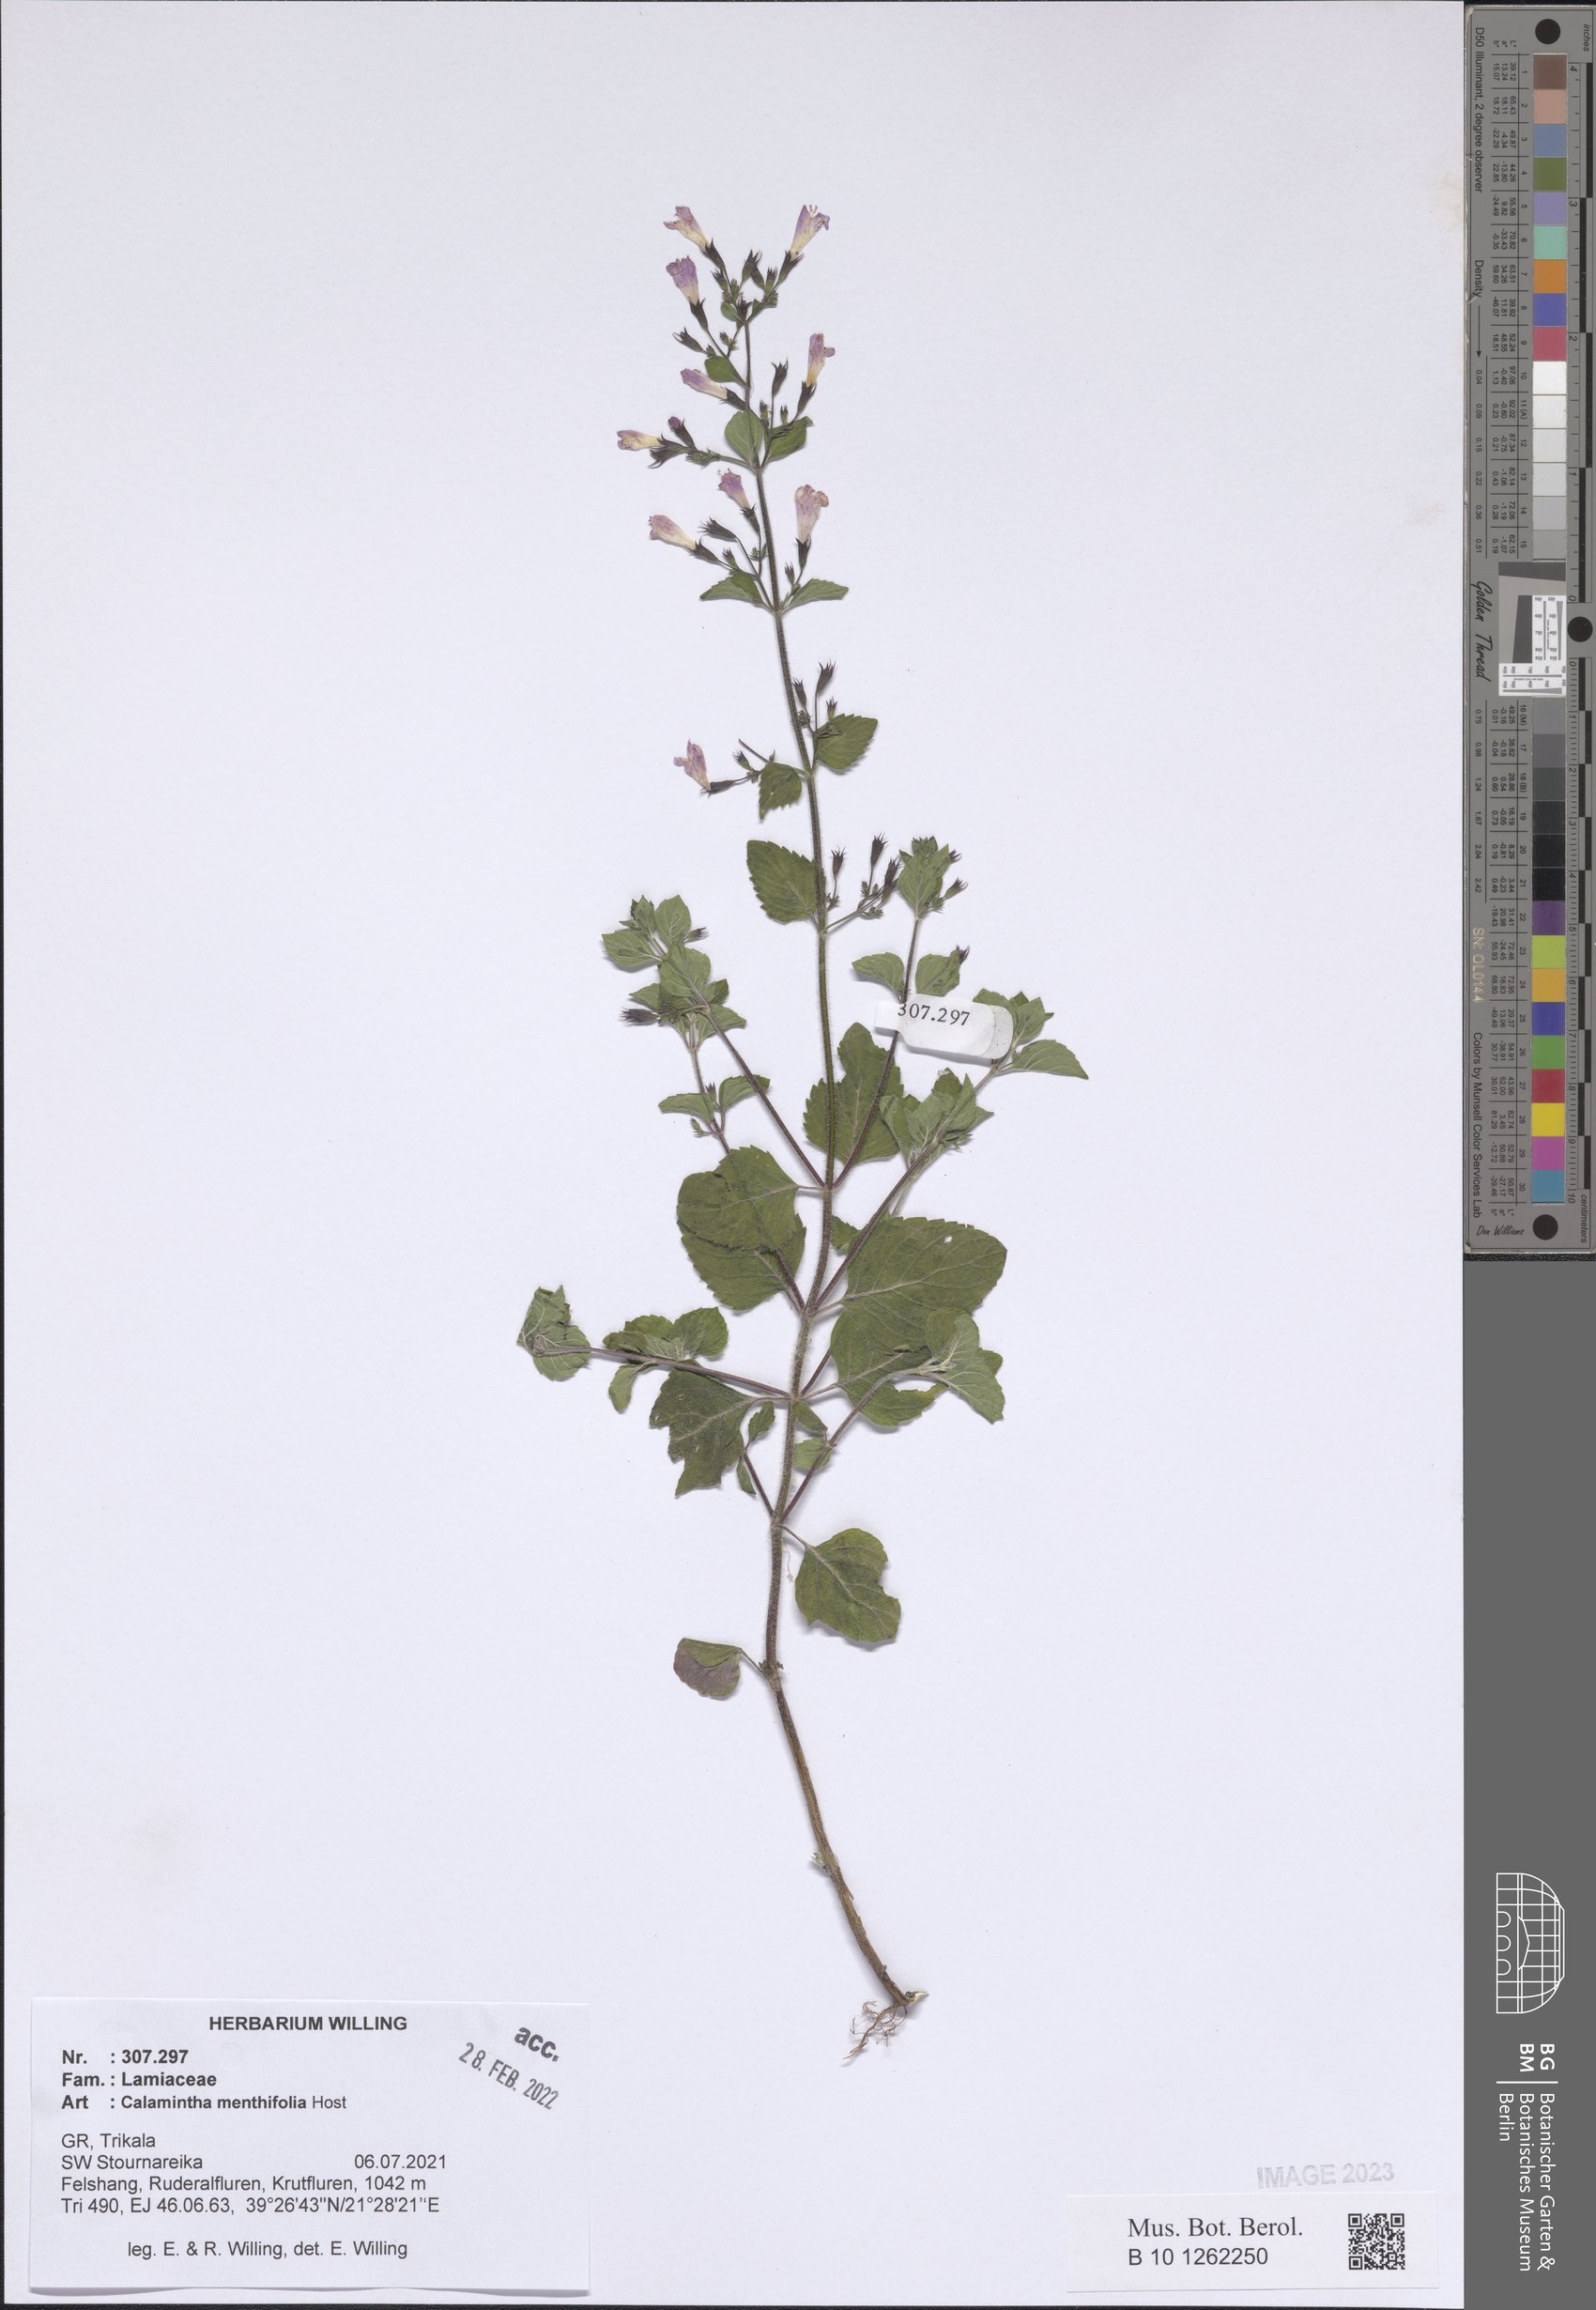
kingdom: Plantae
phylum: Tracheophyta
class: Magnoliopsida
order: Lamiales
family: Lamiaceae
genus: Clinopodium
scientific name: Clinopodium menthifolium
